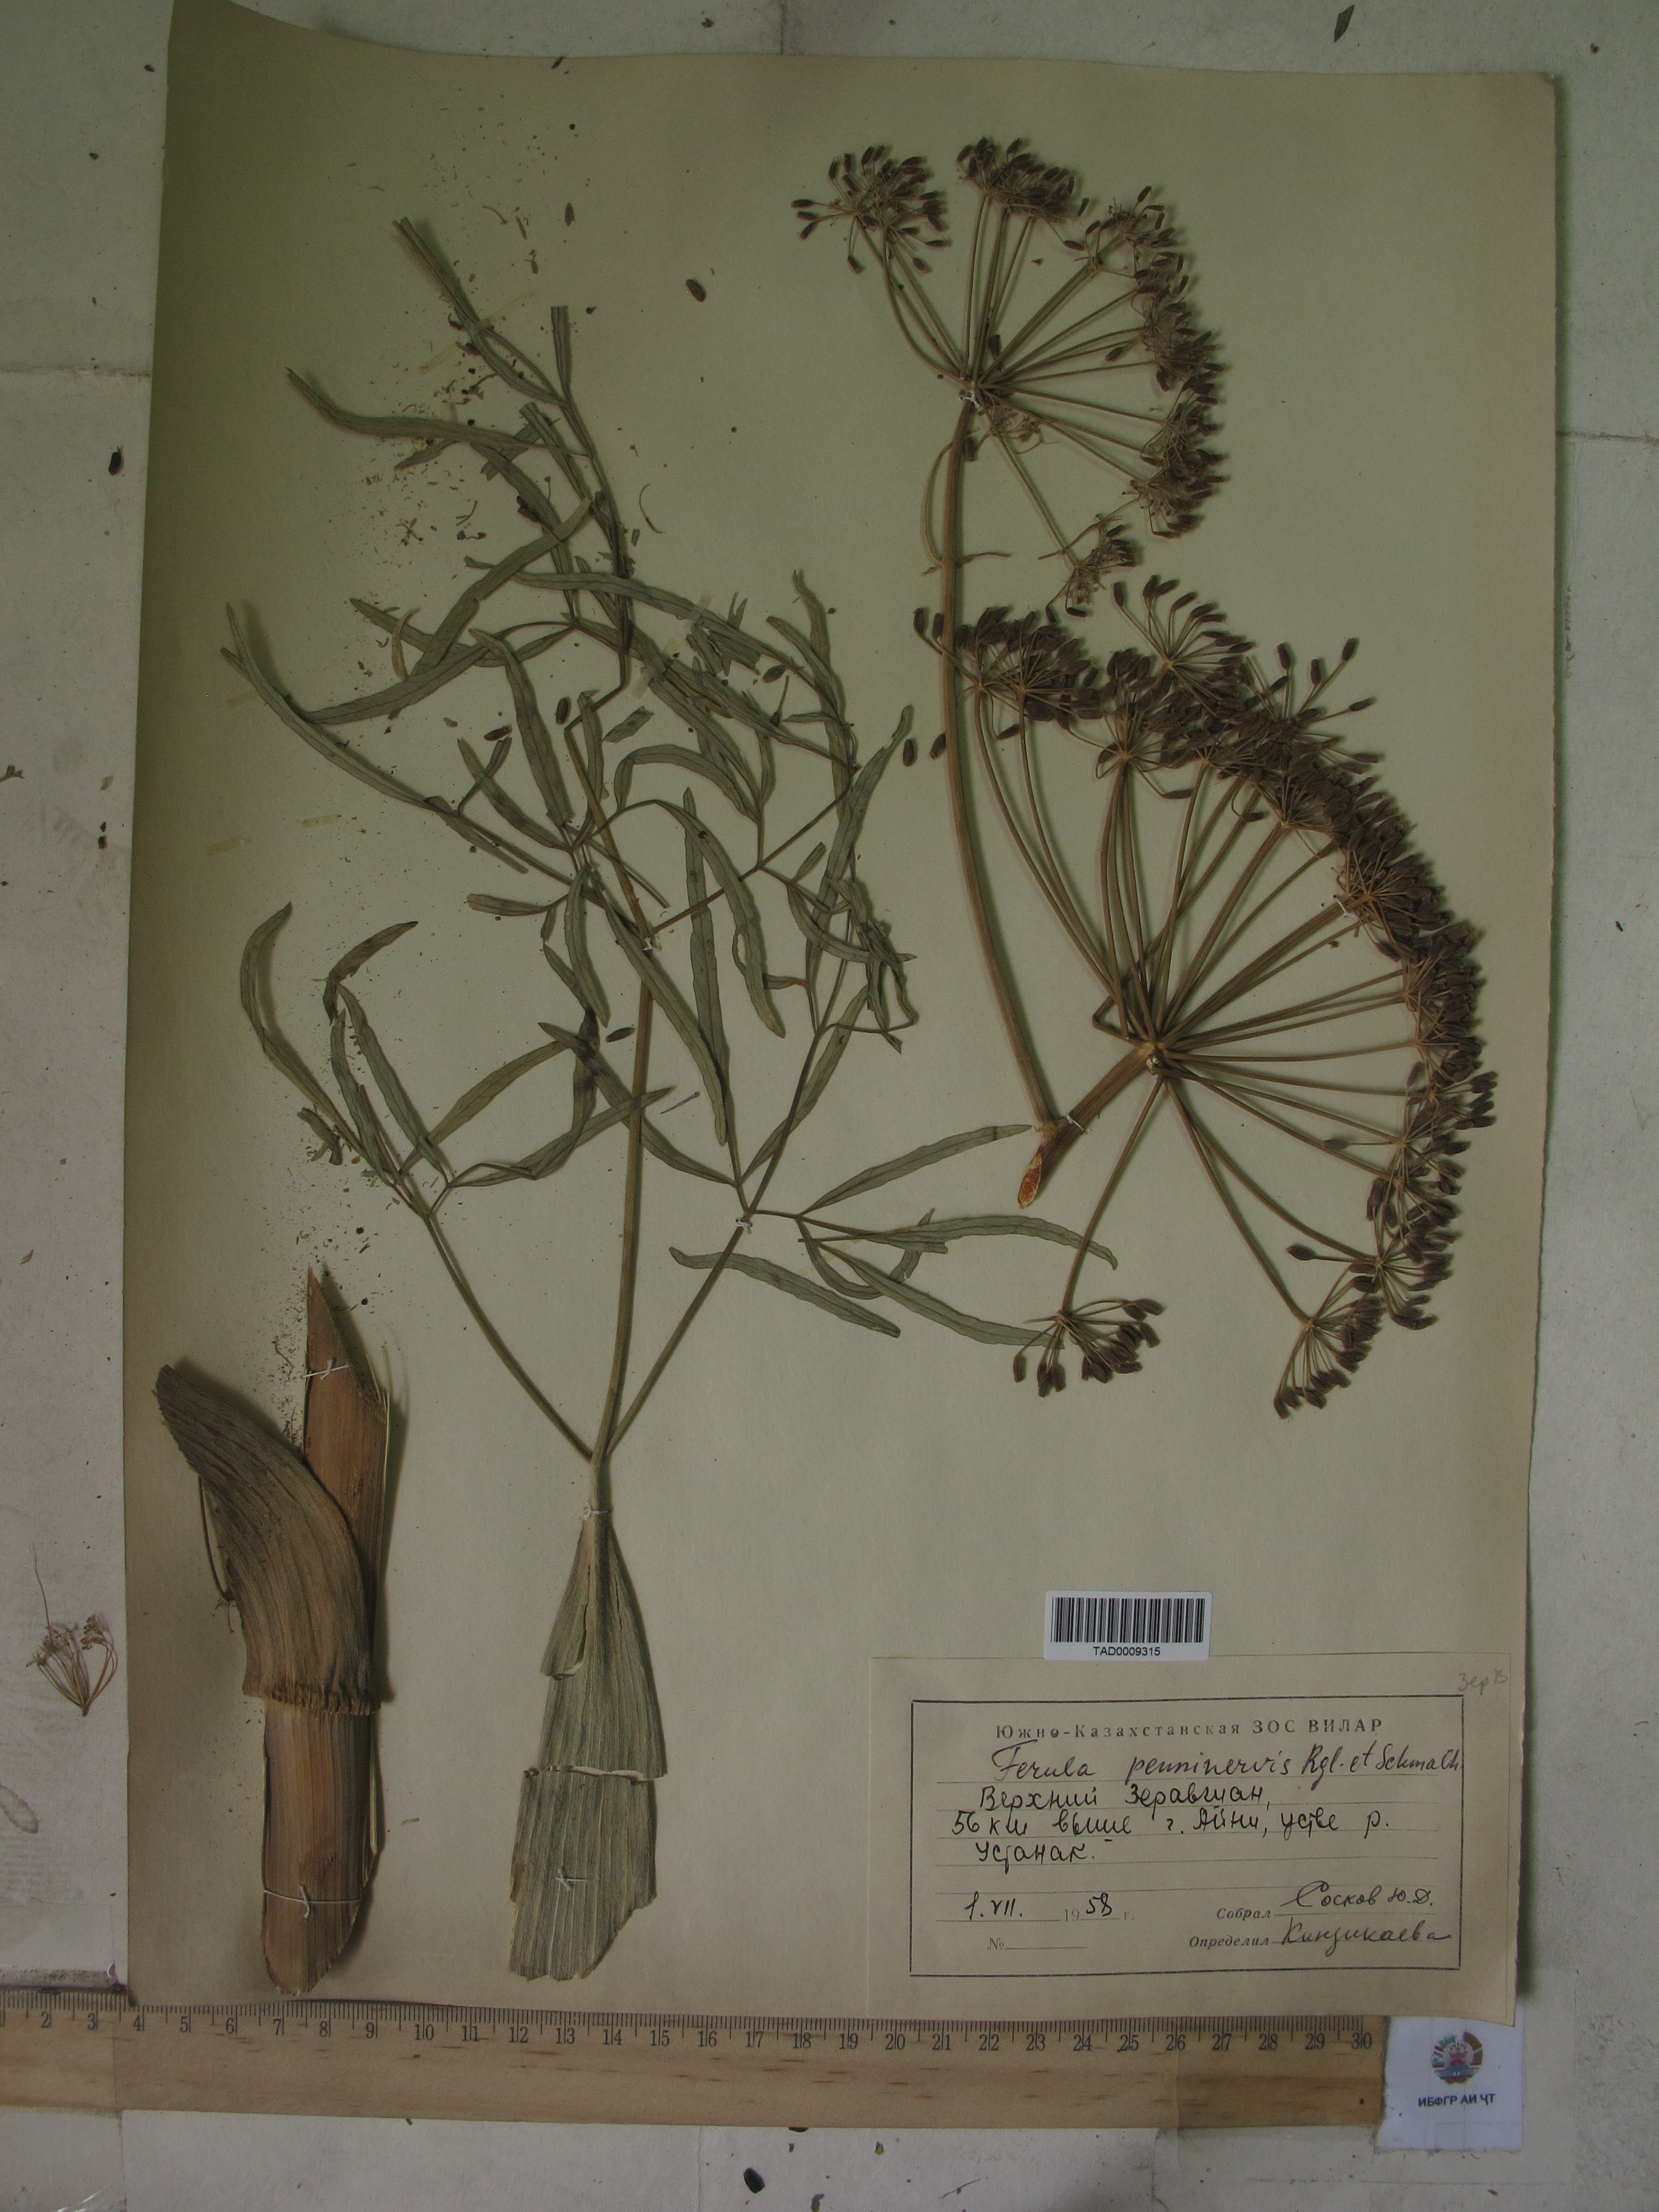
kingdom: Plantae
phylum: Tracheophyta
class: Magnoliopsida
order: Apiales
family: Apiaceae
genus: Ferula
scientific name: Ferula penninervis
